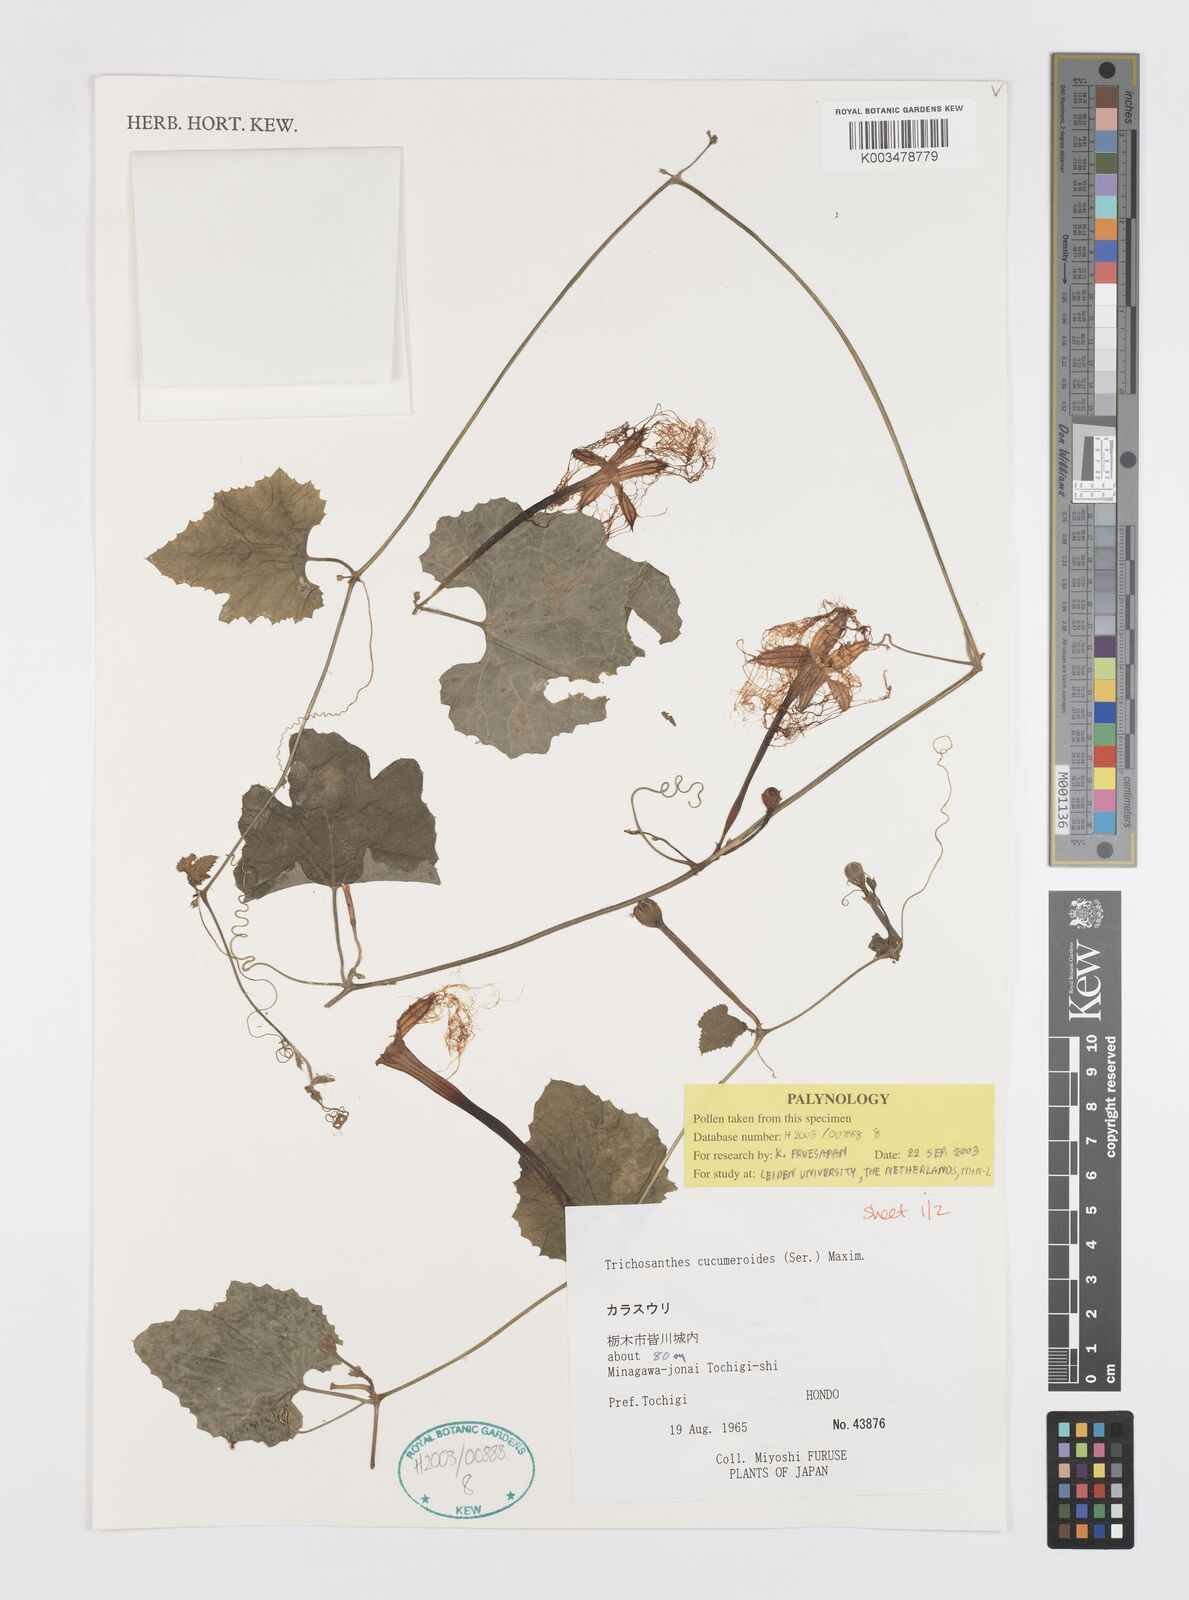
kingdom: Plantae
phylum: Tracheophyta
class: Magnoliopsida
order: Cucurbitales
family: Cucurbitaceae
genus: Trichosanthes
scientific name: Trichosanthes cucumeroides
